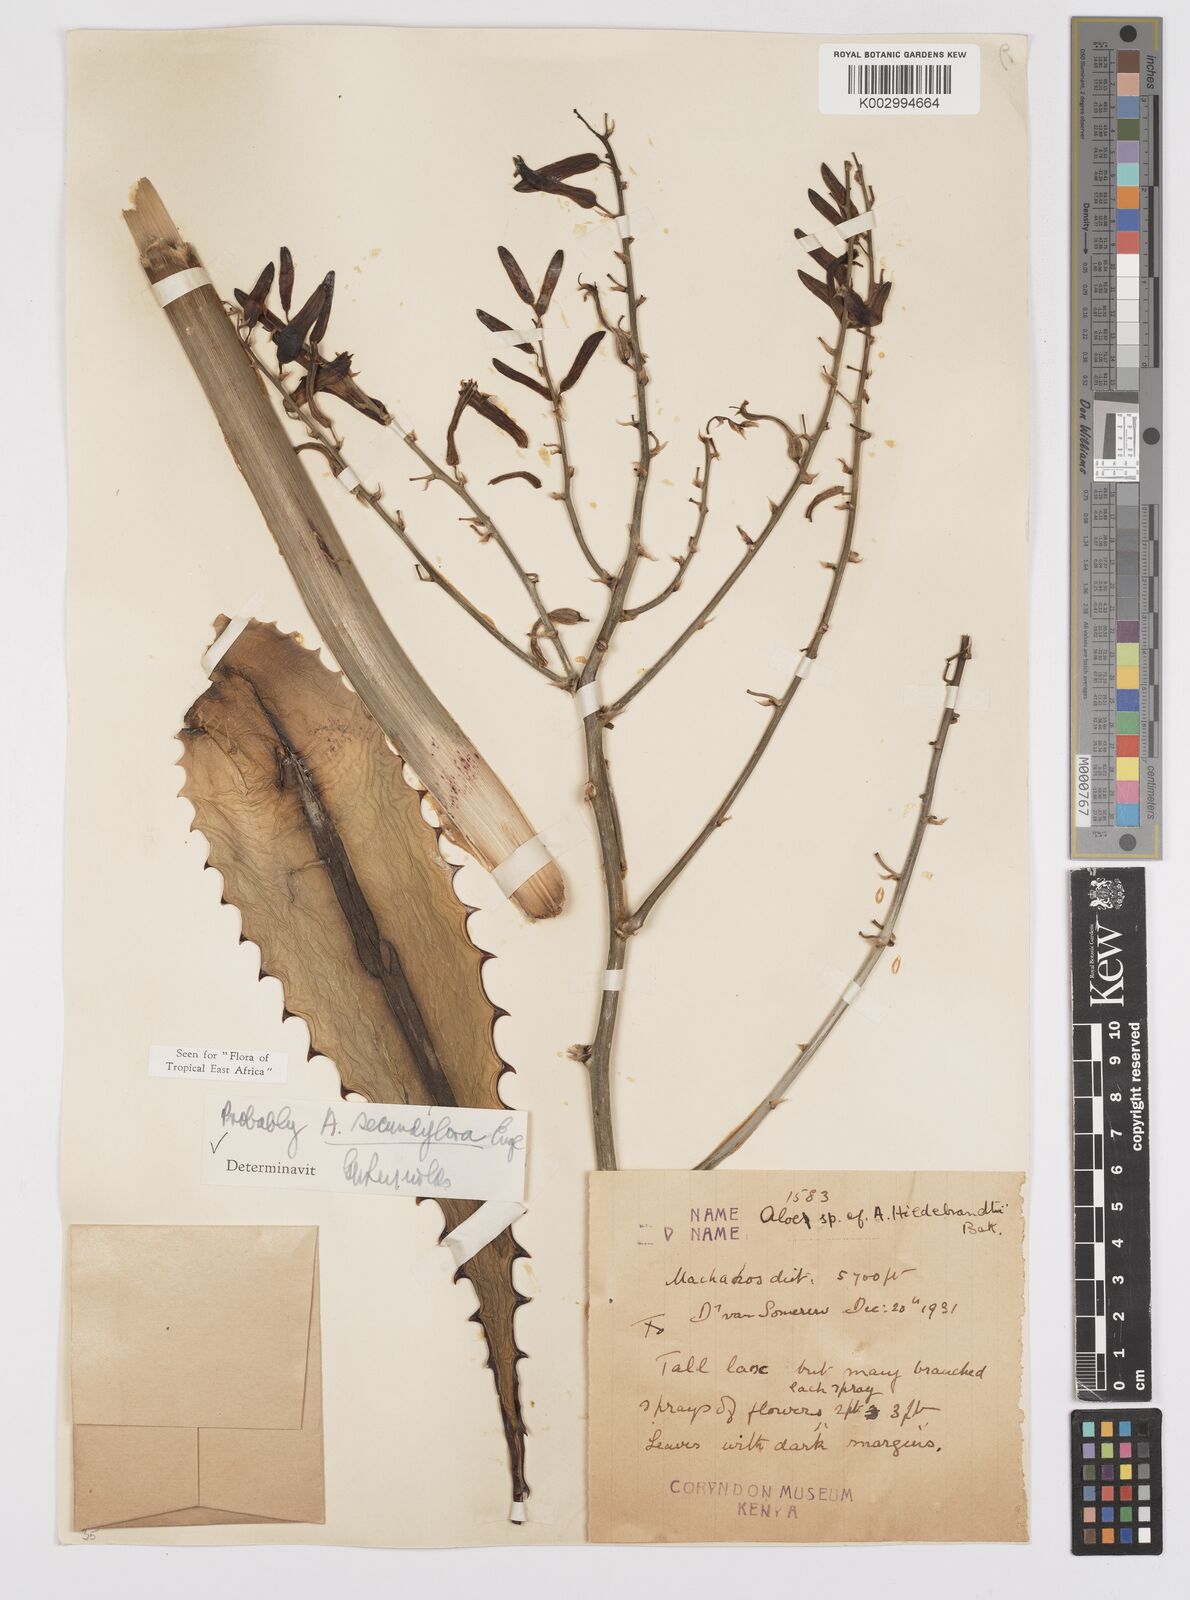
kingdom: Plantae
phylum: Tracheophyta
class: Liliopsida
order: Asparagales
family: Asphodelaceae
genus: Aloe
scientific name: Aloe secundiflora
